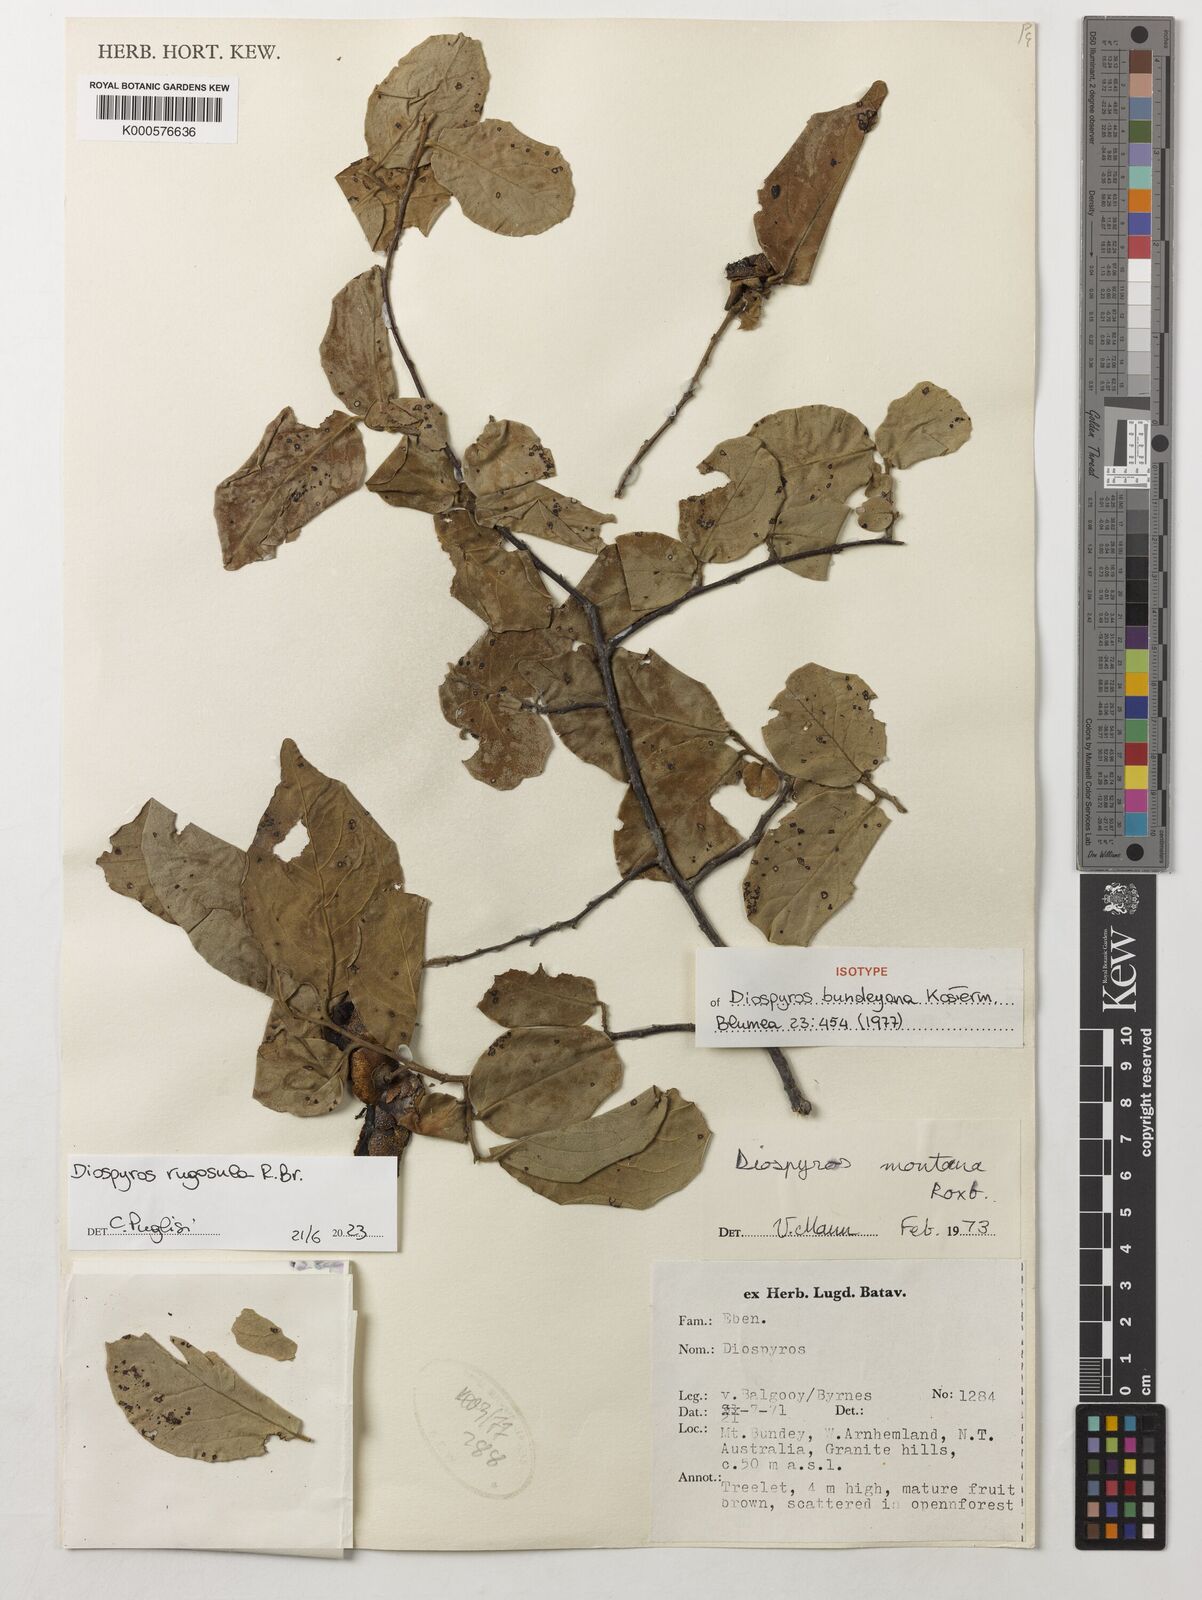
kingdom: Plantae
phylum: Tracheophyta
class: Magnoliopsida
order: Ericales
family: Ebenaceae
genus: Diospyros
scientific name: Diospyros rugosula
